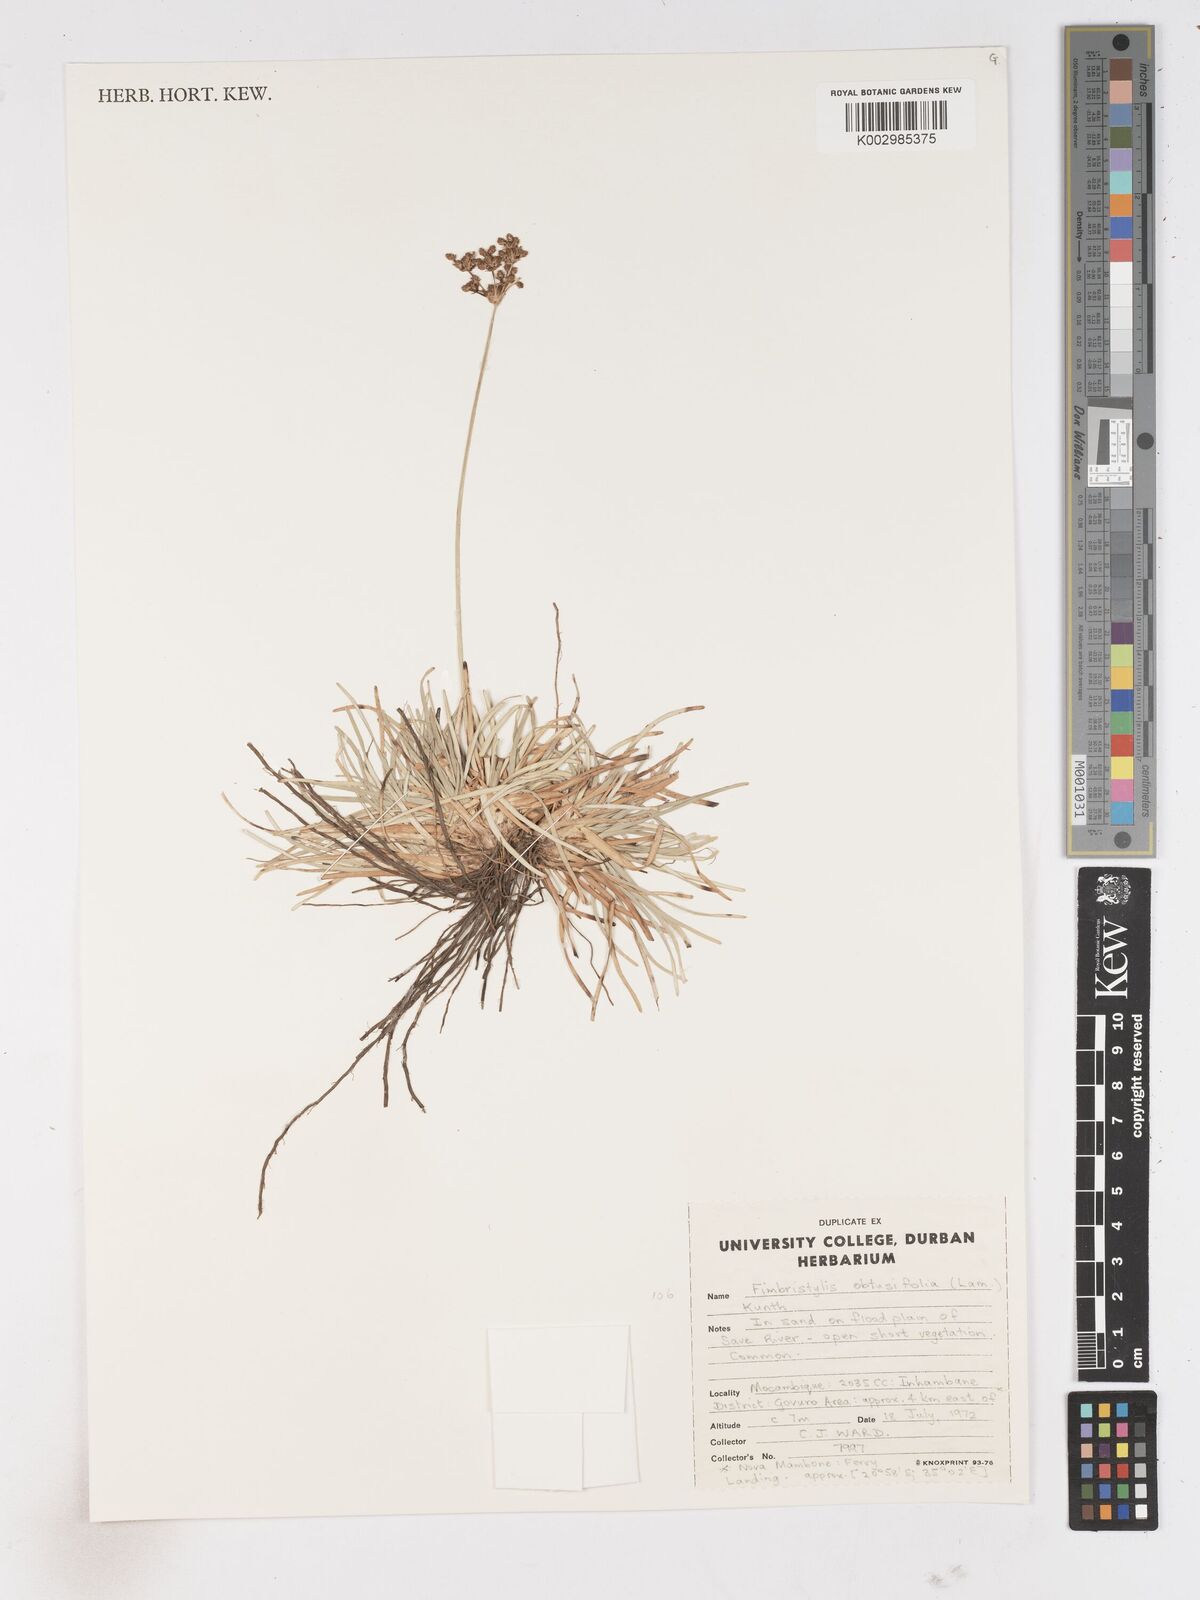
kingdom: Plantae
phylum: Tracheophyta
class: Liliopsida
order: Poales
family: Cyperaceae
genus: Fimbristylis
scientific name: Fimbristylis cymosa
